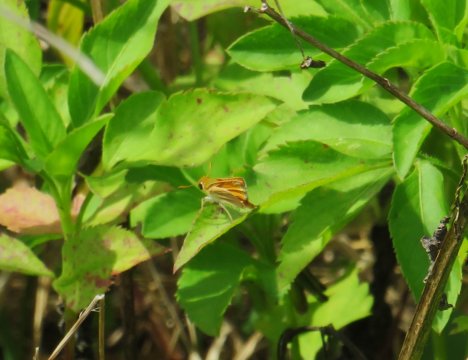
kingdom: Animalia
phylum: Arthropoda
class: Insecta
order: Lepidoptera
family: Hesperiidae
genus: Copaeodes
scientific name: Copaeodes minima
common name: Southern Skipperling
